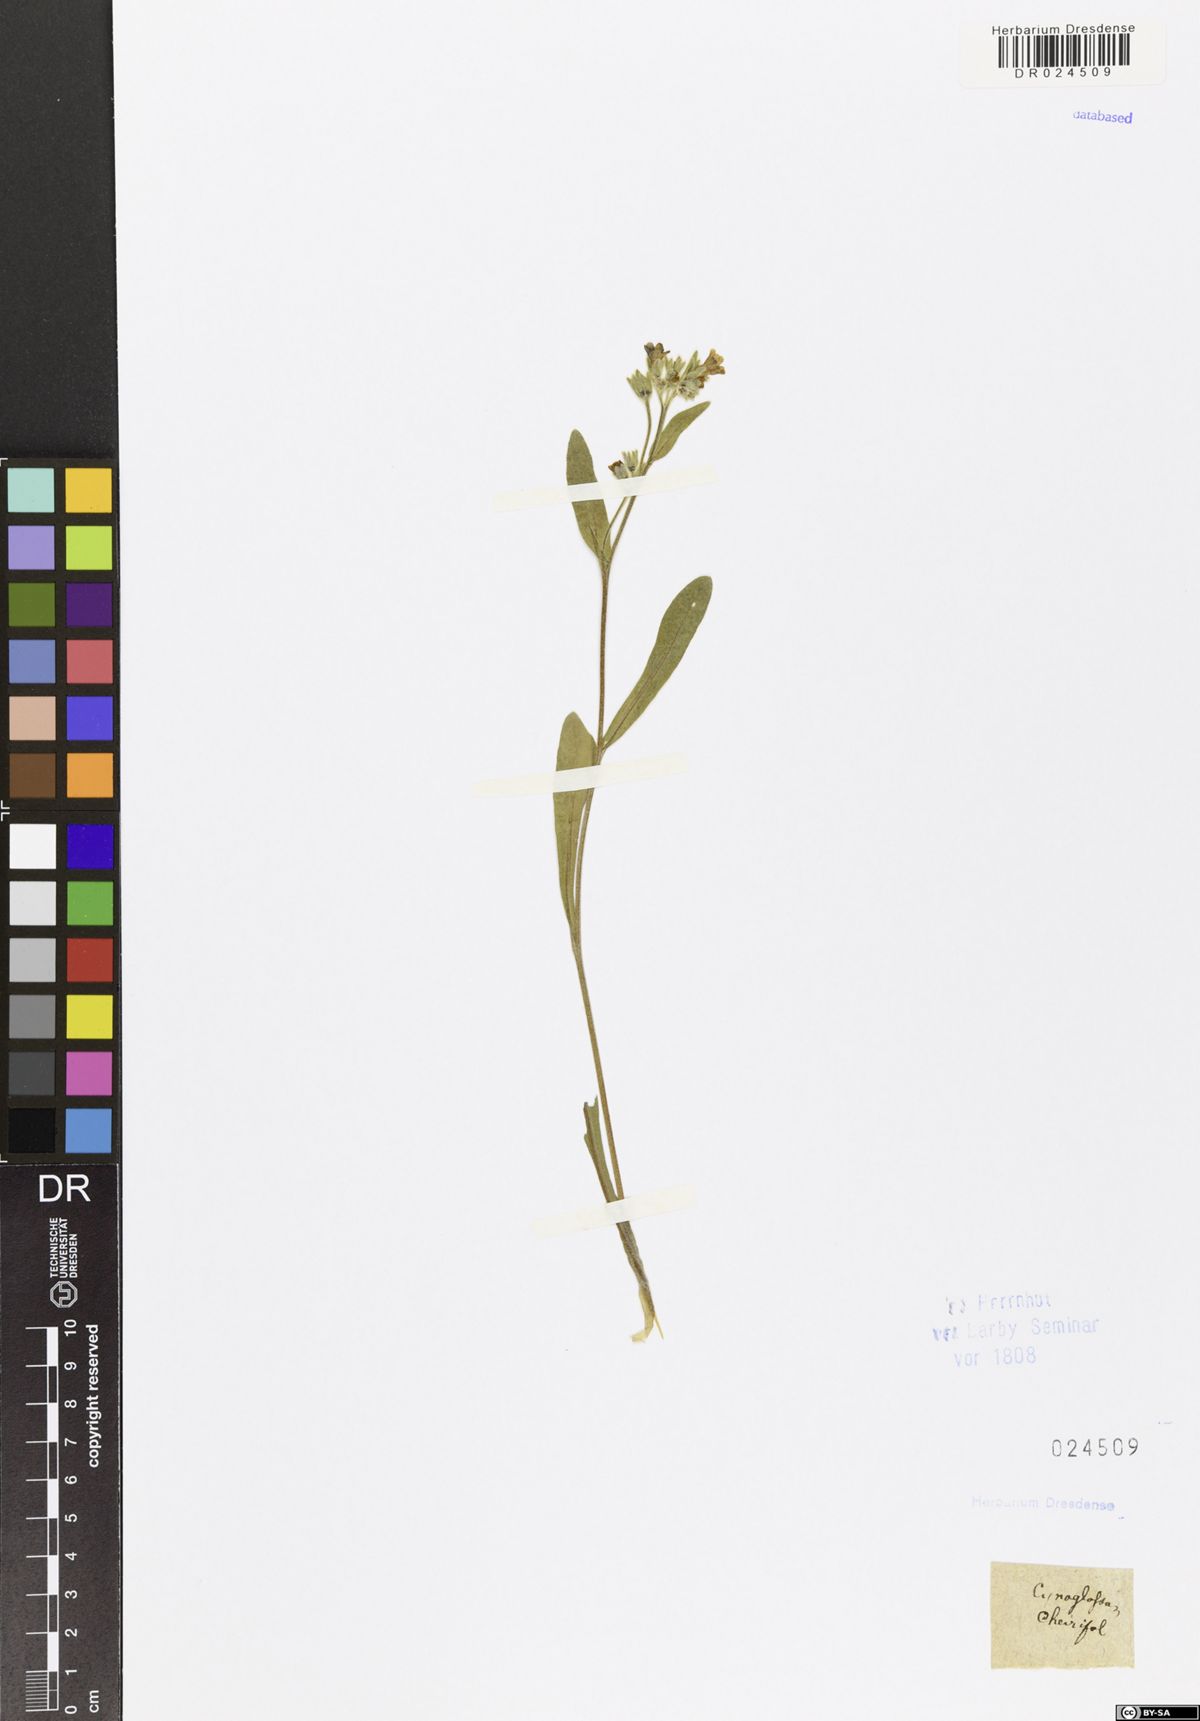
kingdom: Plantae
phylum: Tracheophyta
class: Magnoliopsida
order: Boraginales
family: Boraginaceae
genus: Pardoglossum
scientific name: Pardoglossum cheirifolium
